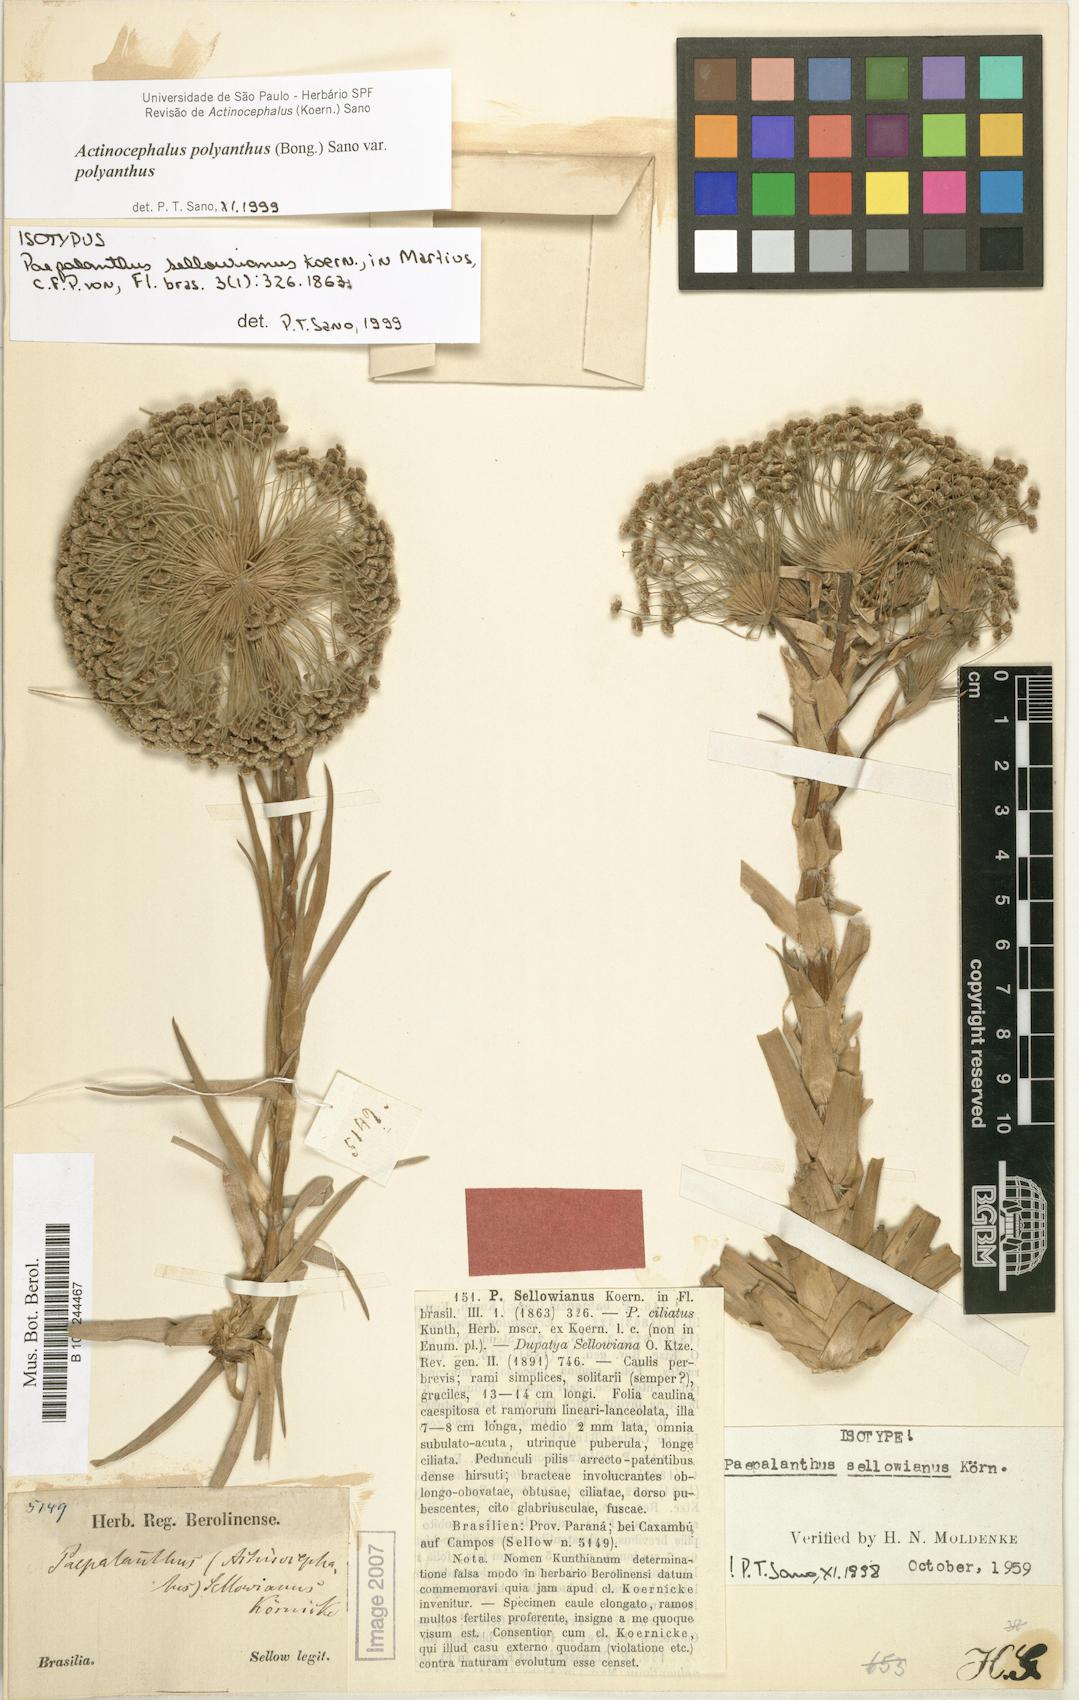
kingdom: Plantae
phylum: Tracheophyta
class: Liliopsida
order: Poales
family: Eriocaulaceae
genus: Paepalanthus
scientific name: Paepalanthus polyanthus
